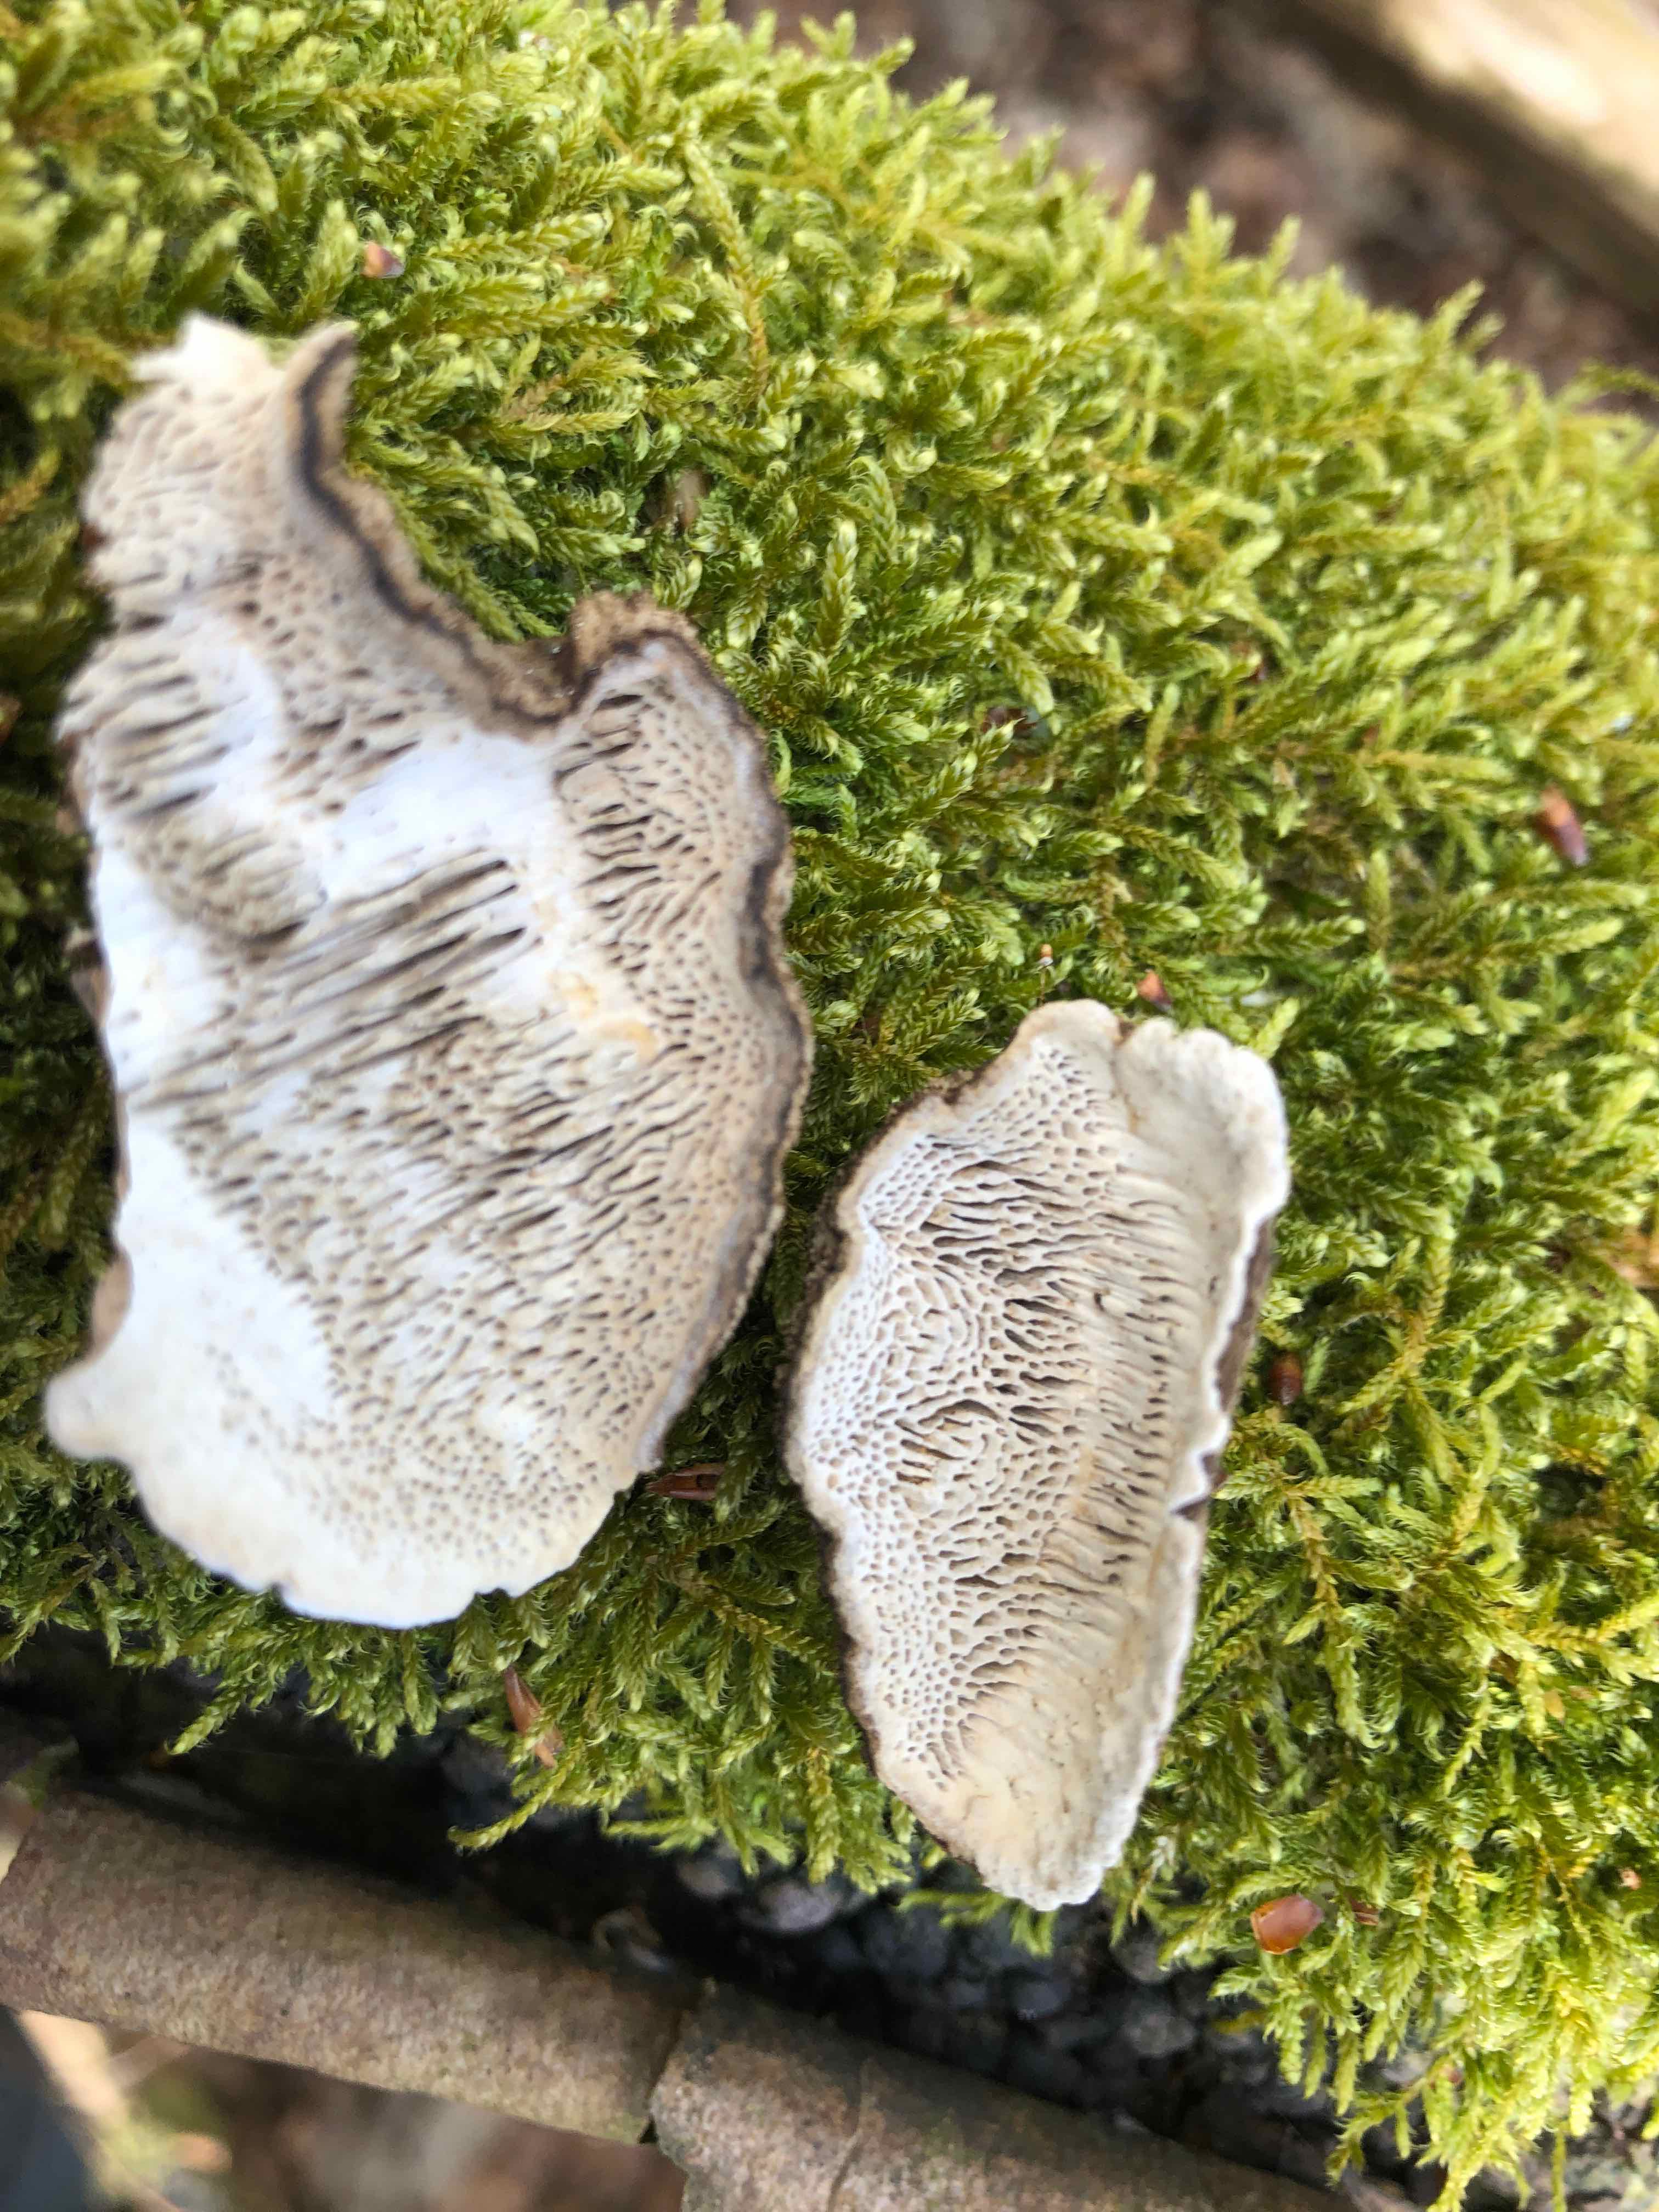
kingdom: Fungi
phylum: Basidiomycota
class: Agaricomycetes
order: Polyporales
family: Polyporaceae
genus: Podofomes
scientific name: Podofomes mollis
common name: blød begporesvamp
